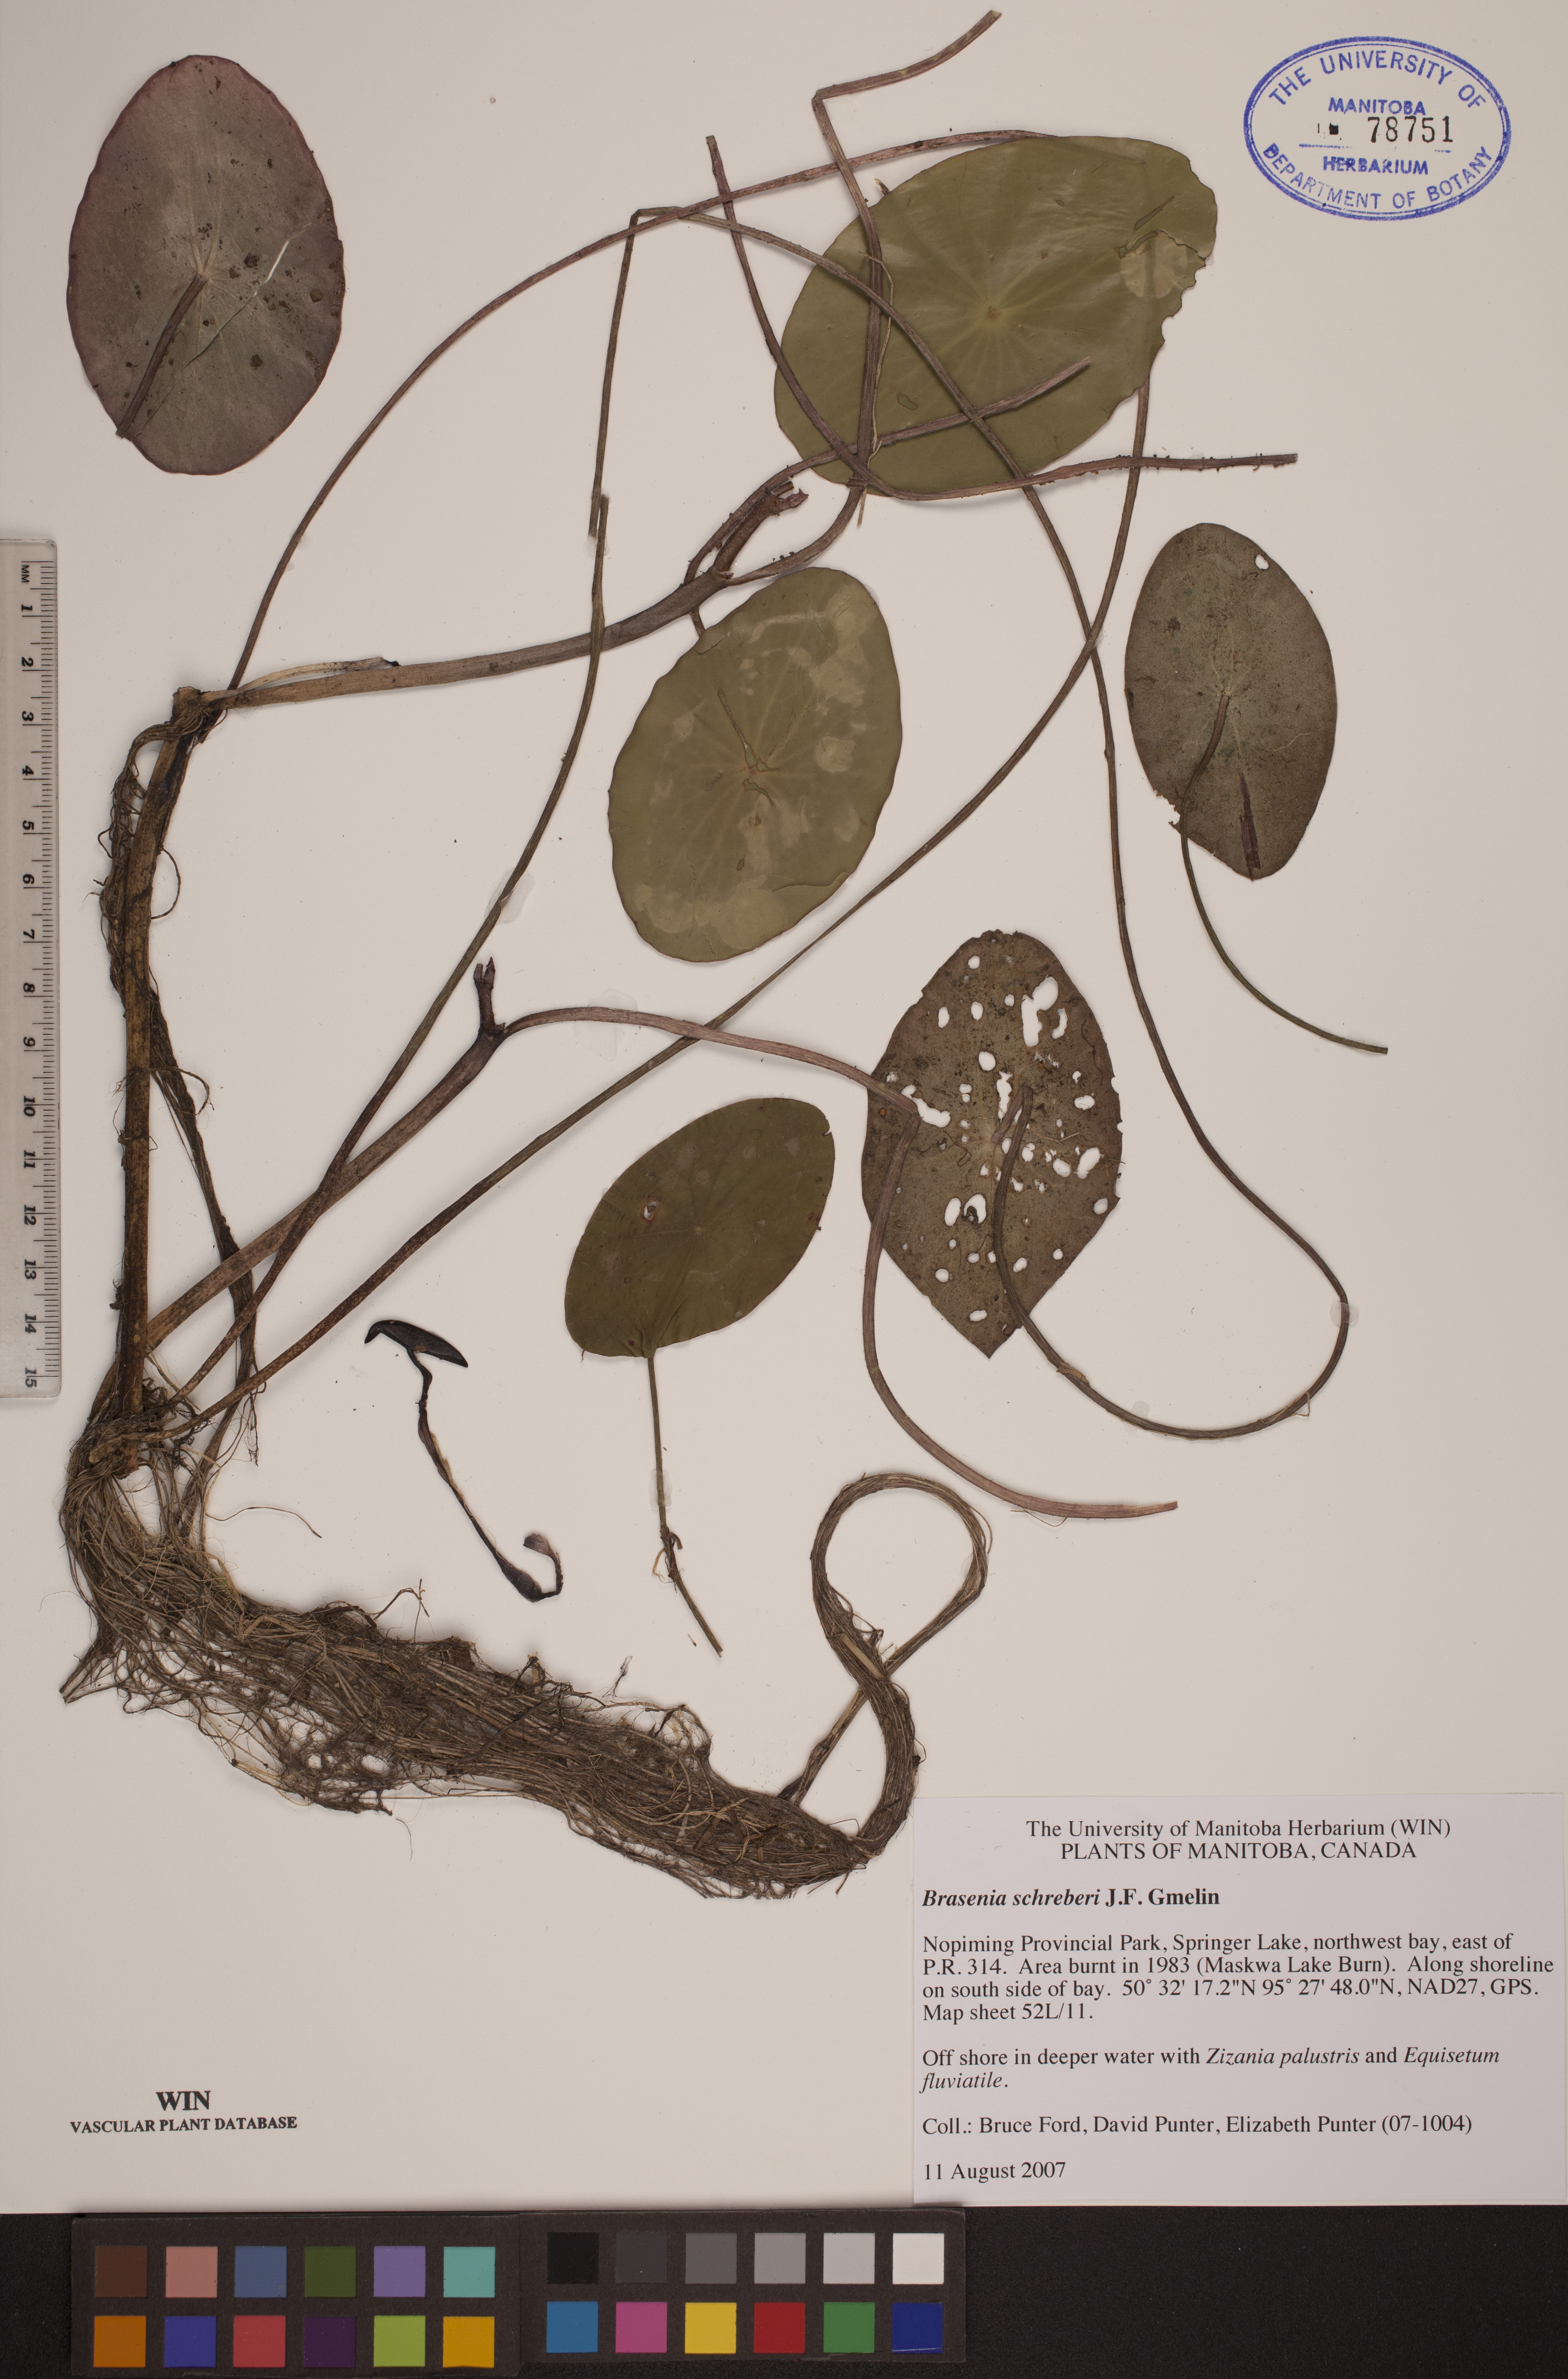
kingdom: Plantae
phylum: Tracheophyta
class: Magnoliopsida
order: Nymphaeales
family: Cabombaceae
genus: Brasenia
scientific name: Brasenia schreberi
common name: Water-shield
